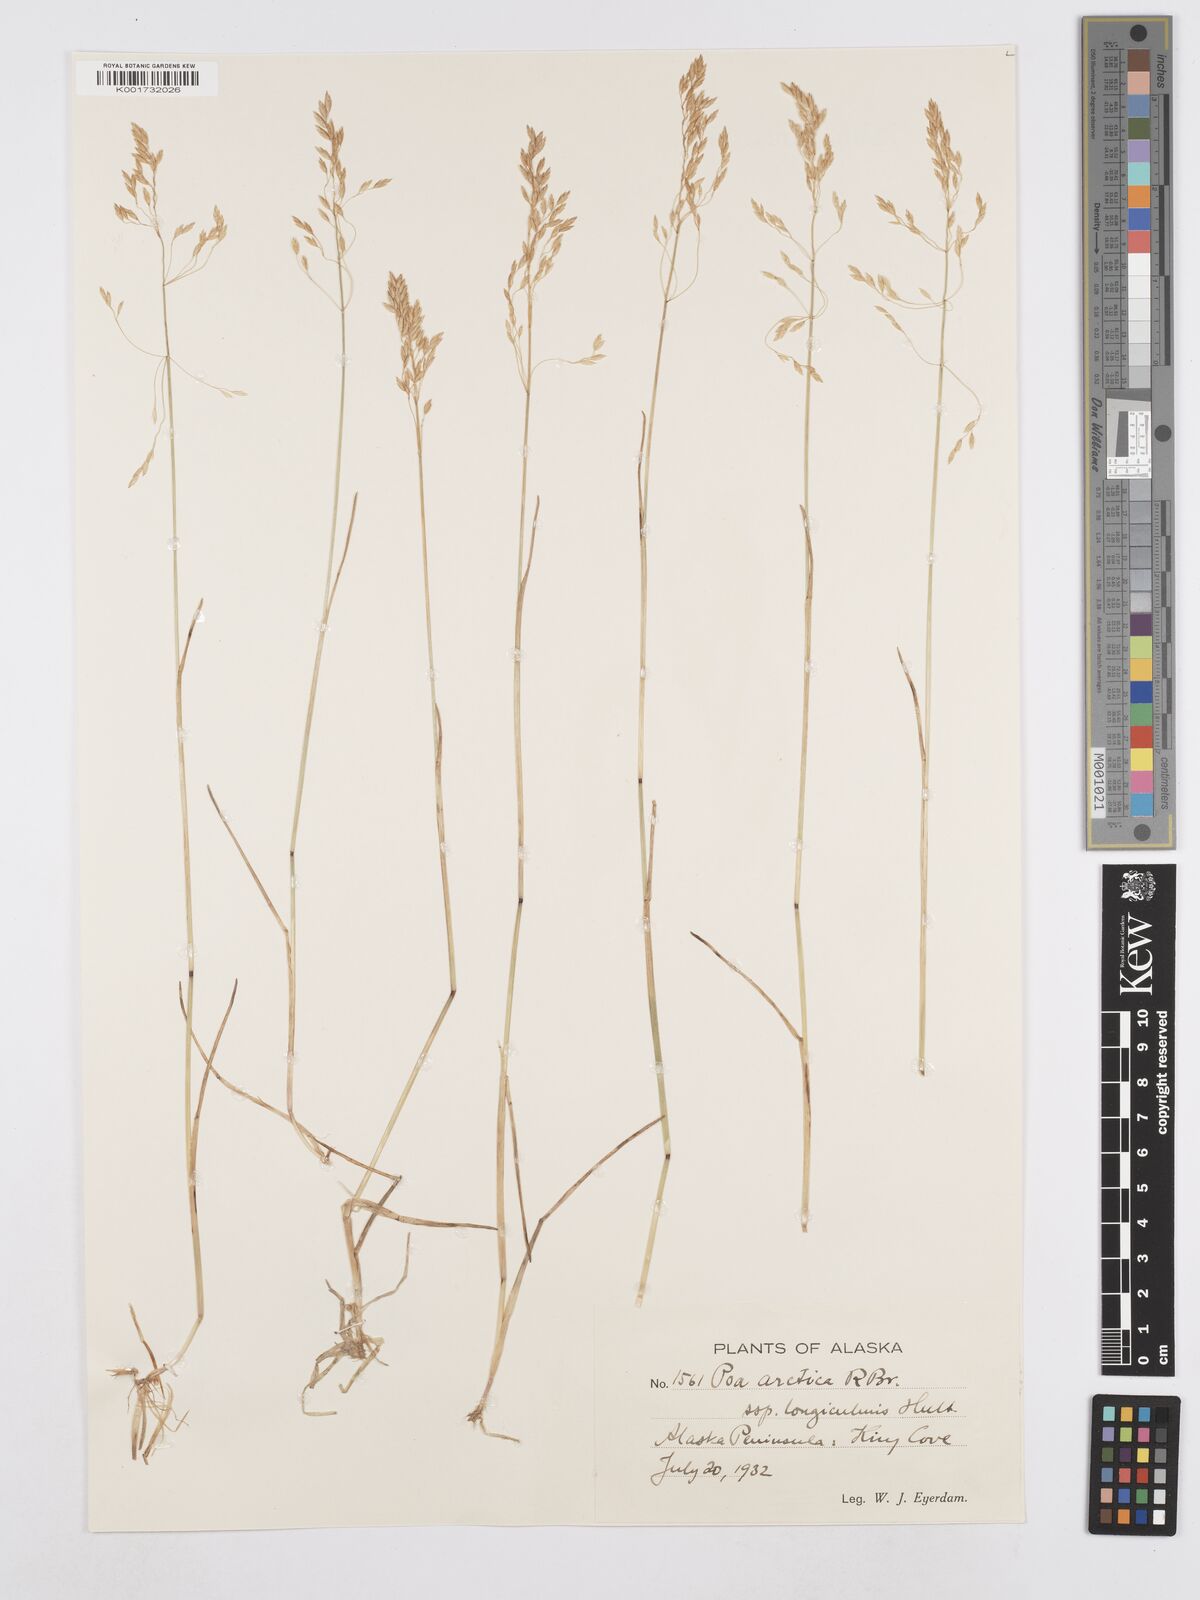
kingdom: Plantae
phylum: Tracheophyta
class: Liliopsida
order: Poales
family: Poaceae
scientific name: Poaceae
